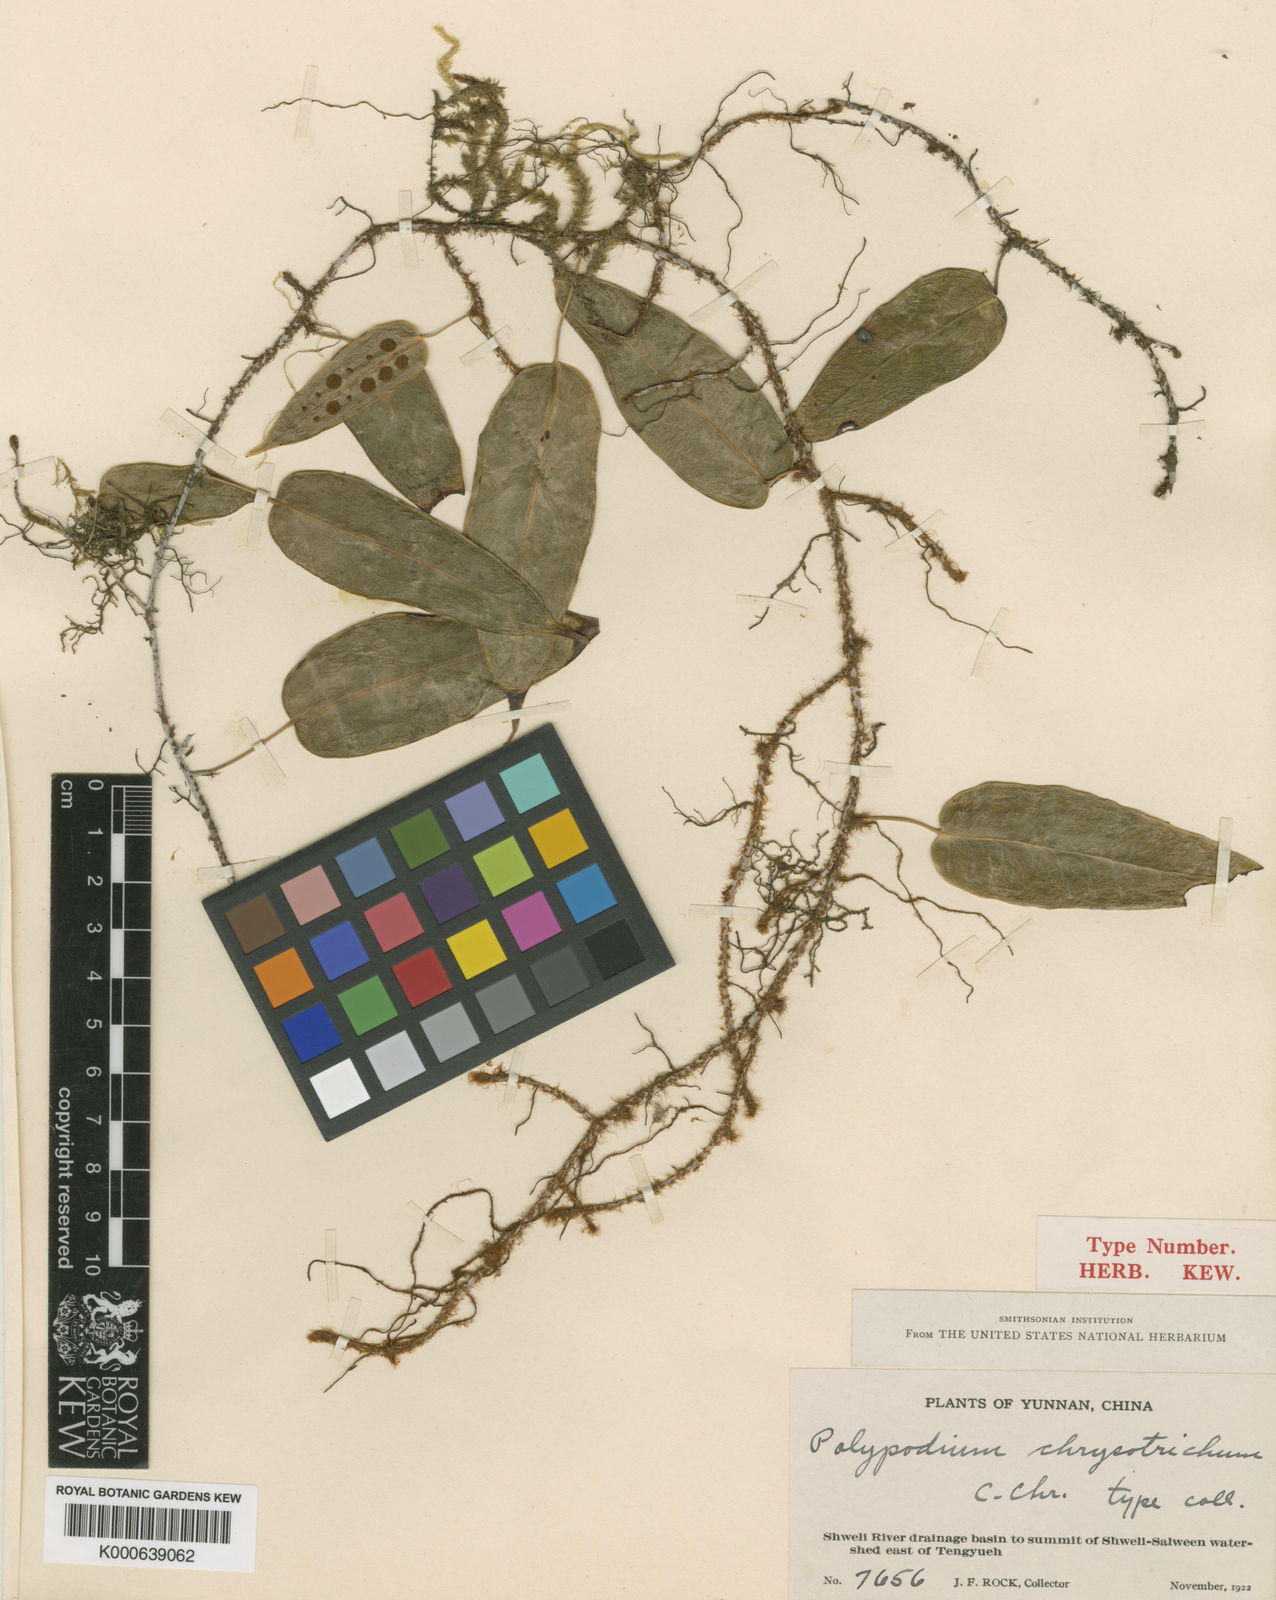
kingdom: Plantae
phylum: Tracheophyta
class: Polypodiopsida
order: Polypodiales
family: Polypodiaceae
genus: Selliguea
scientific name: Selliguea
